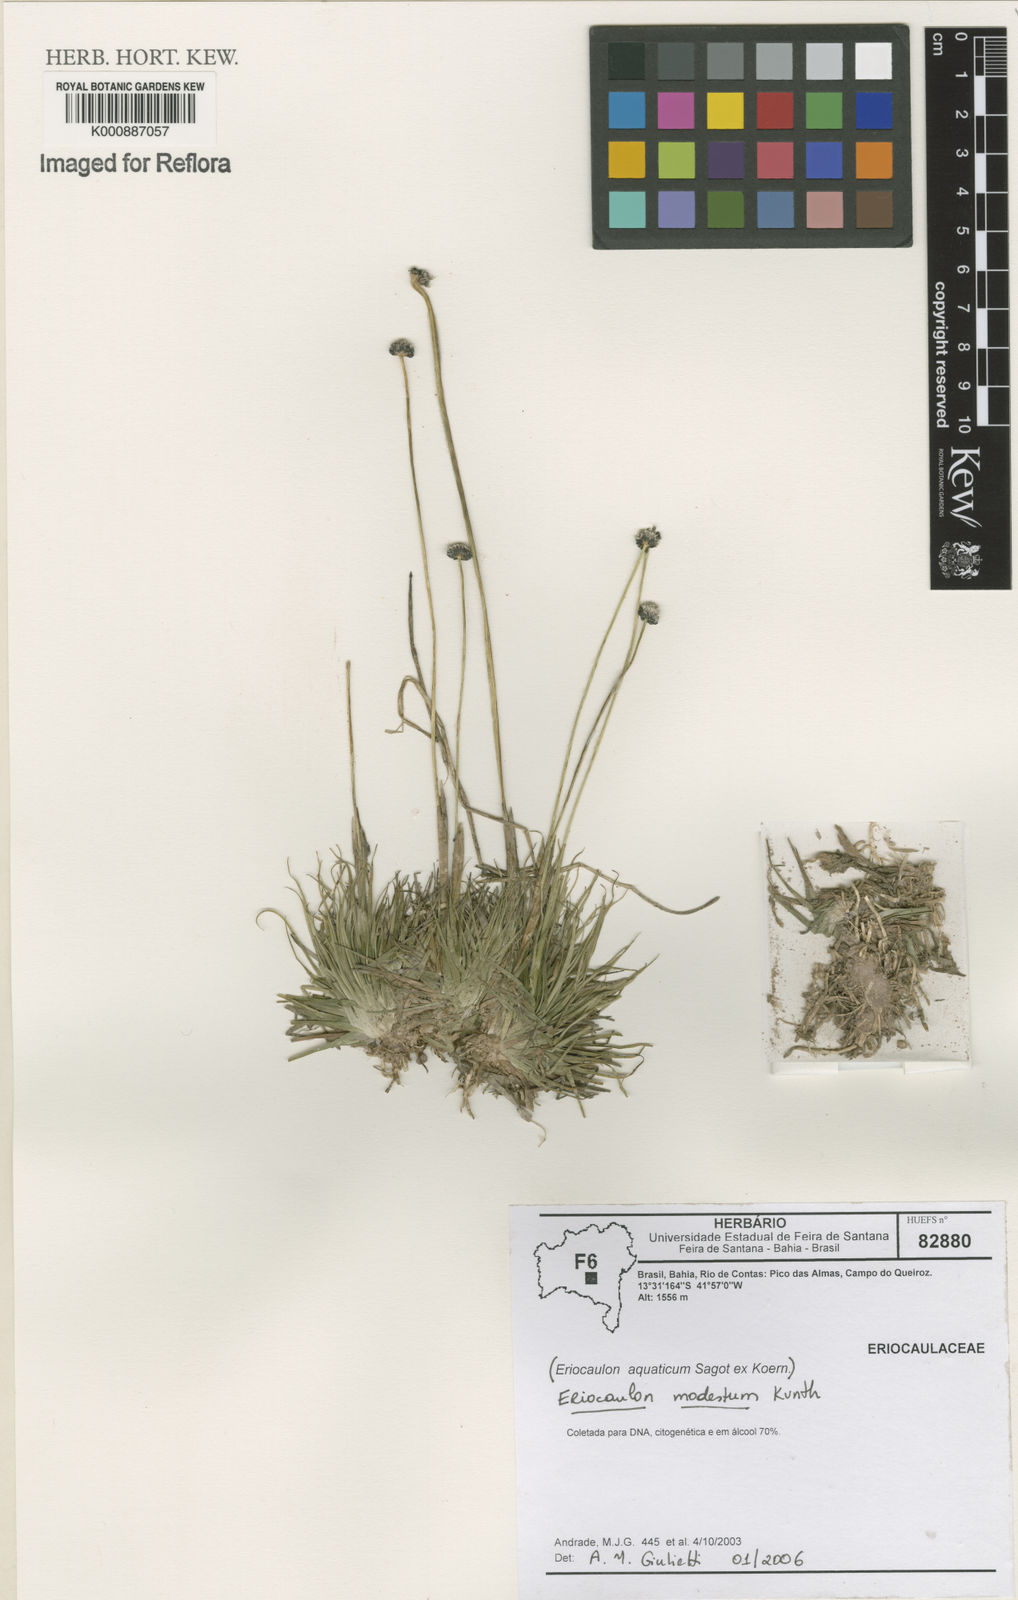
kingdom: Plantae
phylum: Tracheophyta
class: Liliopsida
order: Poales
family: Eriocaulaceae
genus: Eriocaulon
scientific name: Eriocaulon modestum
